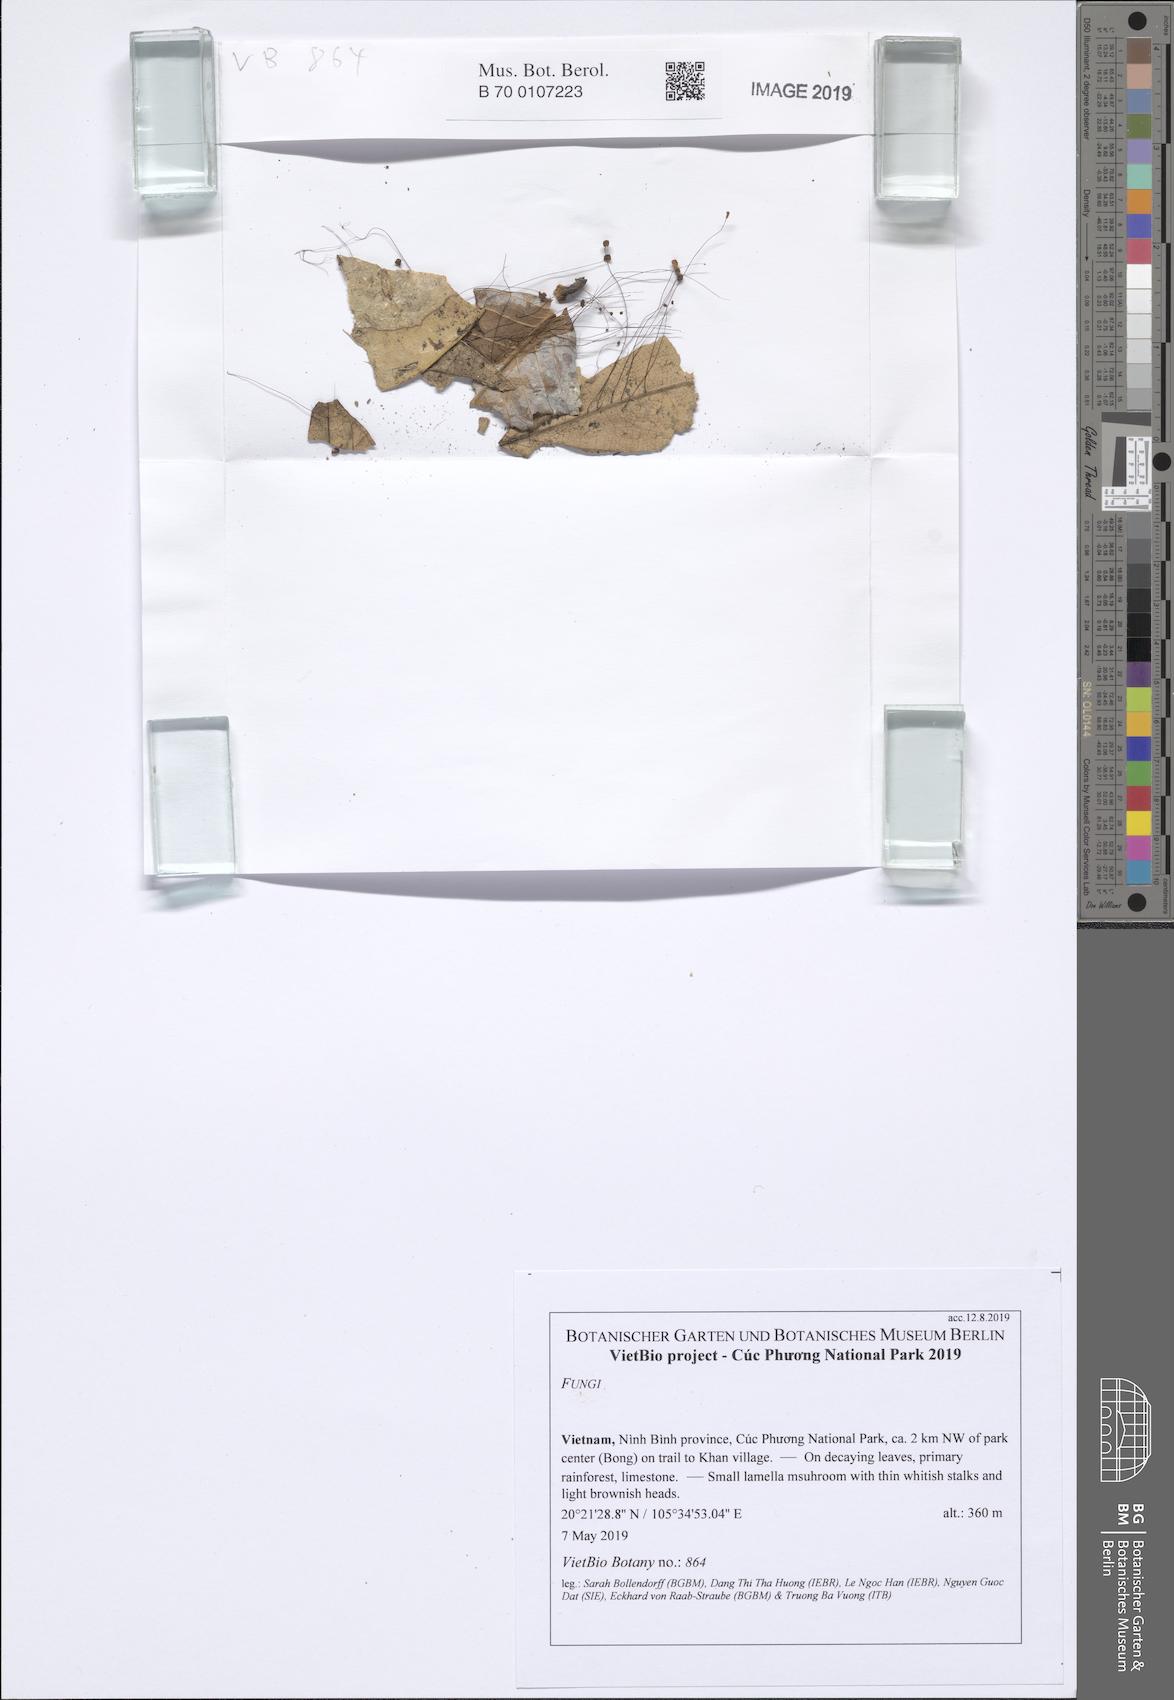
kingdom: Fungi
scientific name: Fungi
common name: Fungi
